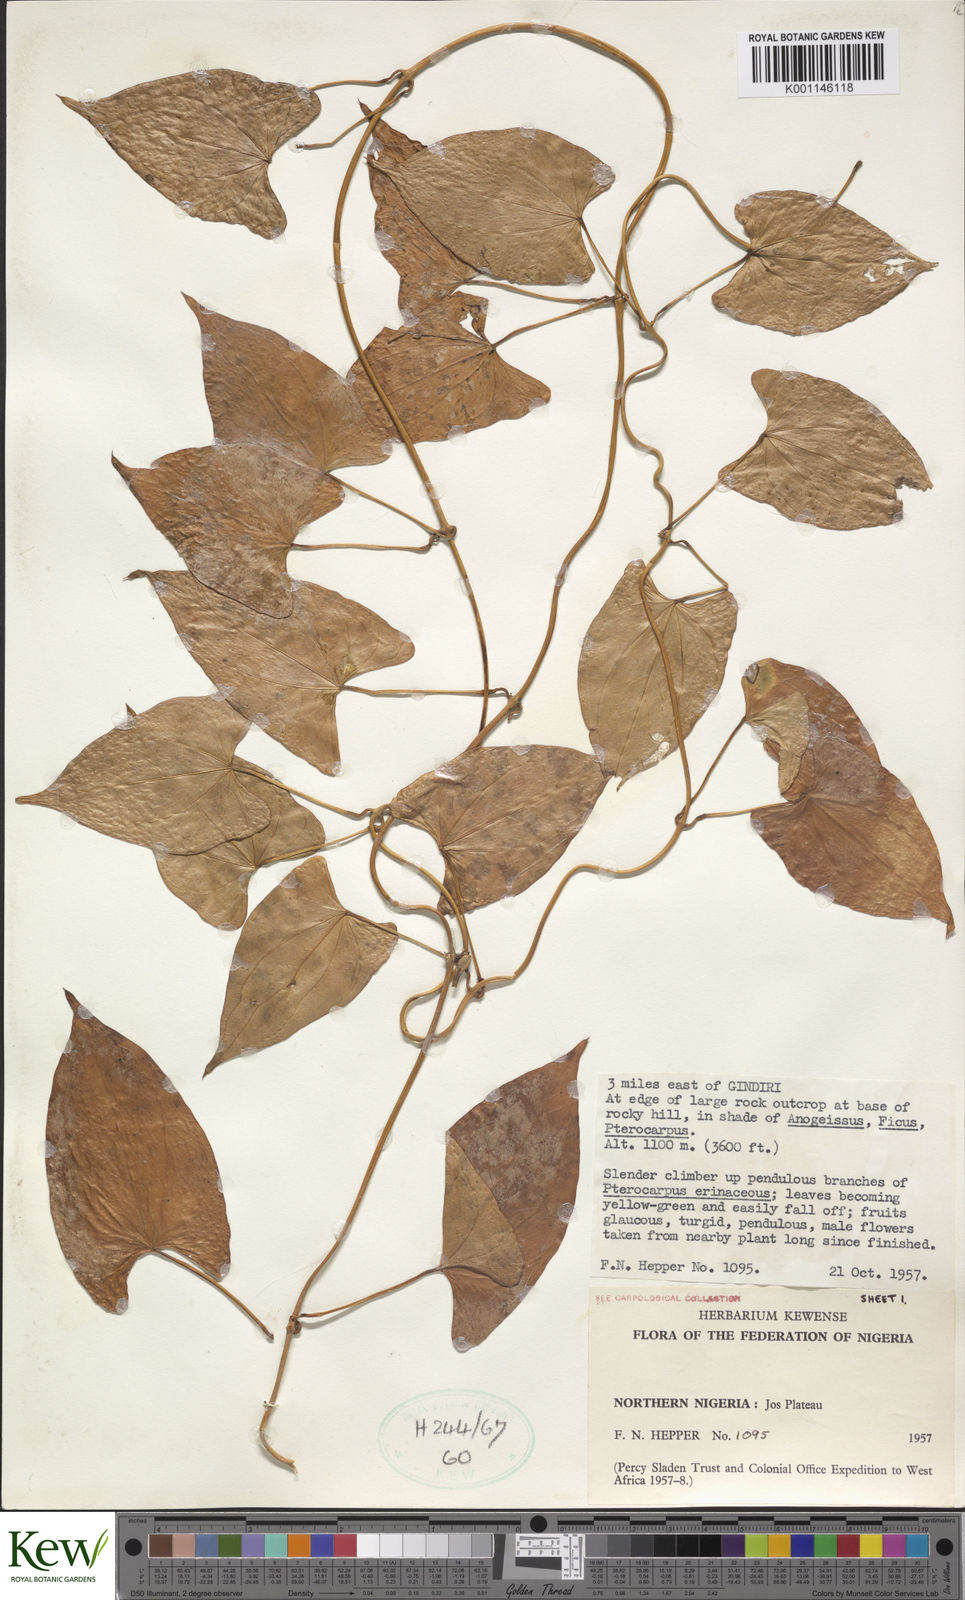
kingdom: Plantae
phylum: Tracheophyta
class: Liliopsida
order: Dioscoreales
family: Dioscoreaceae
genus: Dioscorea
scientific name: Dioscorea
